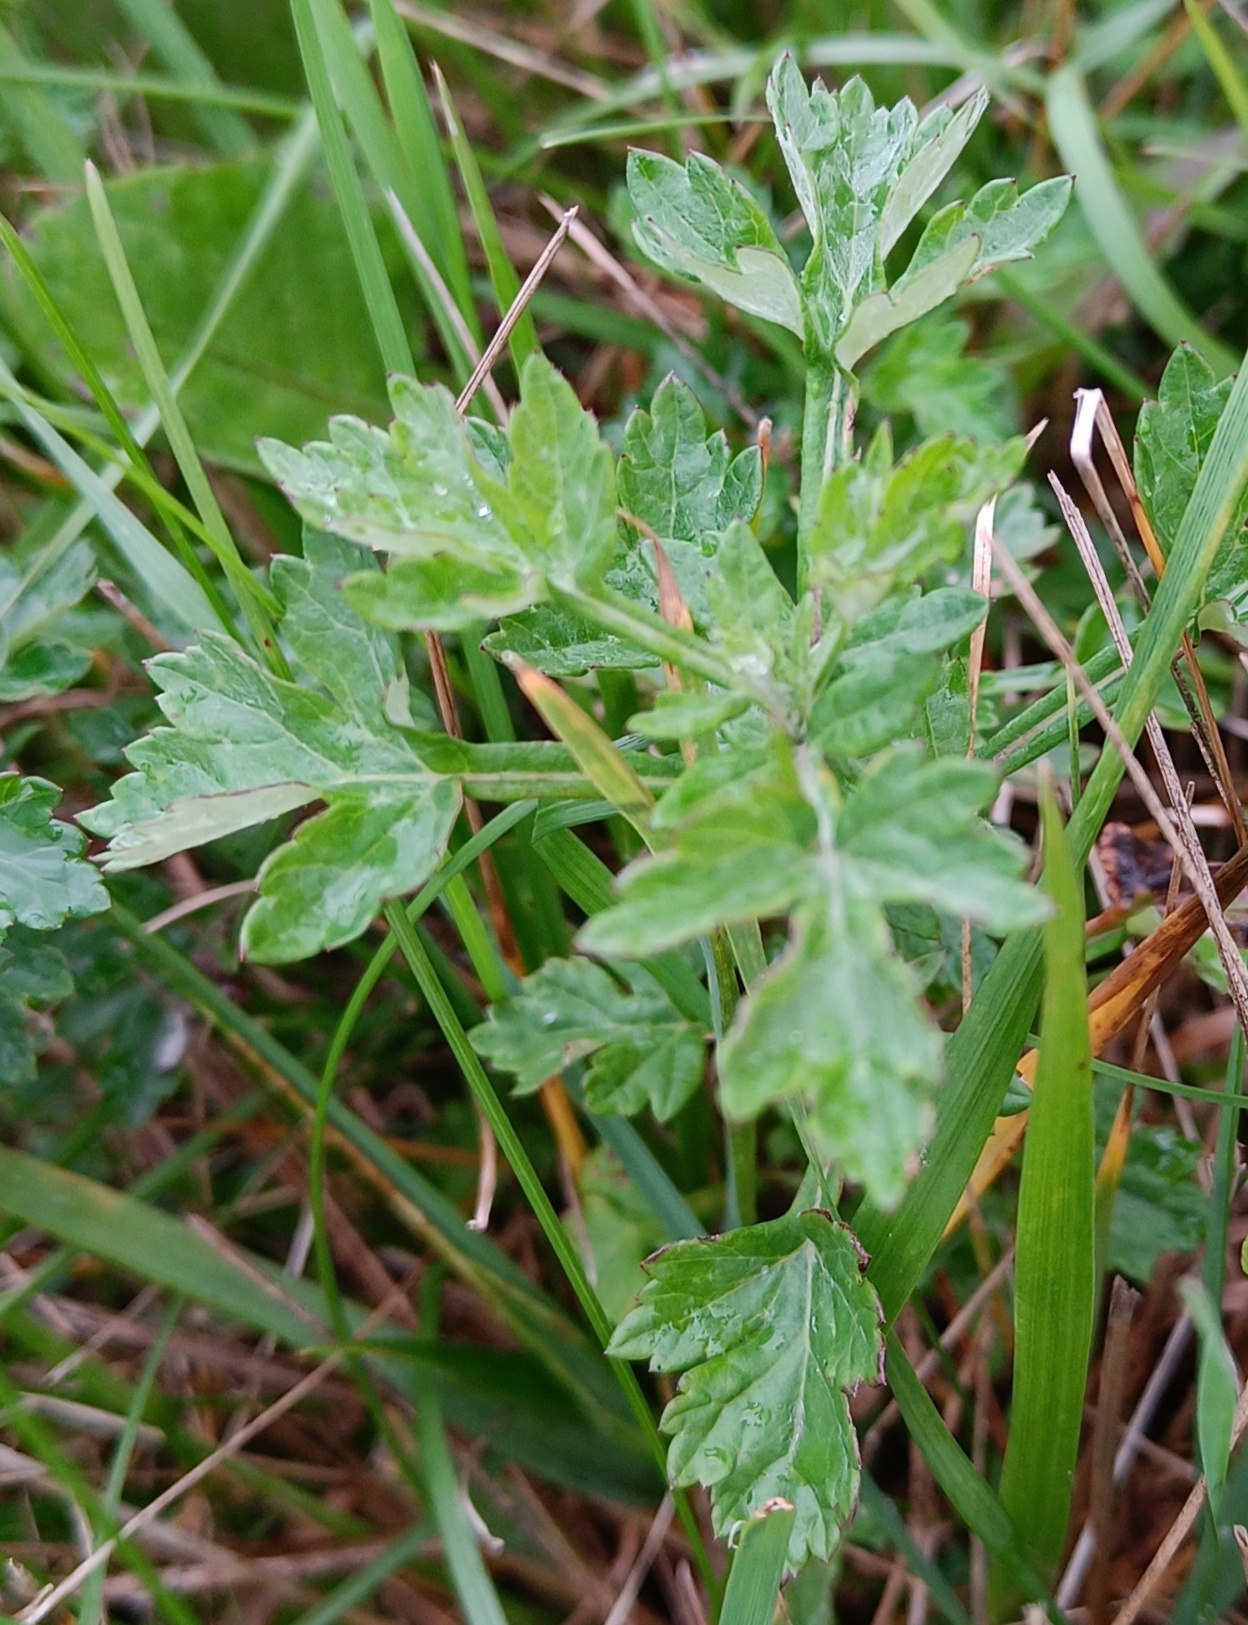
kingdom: Plantae
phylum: Tracheophyta
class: Magnoliopsida
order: Asterales
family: Asteraceae
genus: Artemisia
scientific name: Artemisia vulgaris
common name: Grå-bynke
